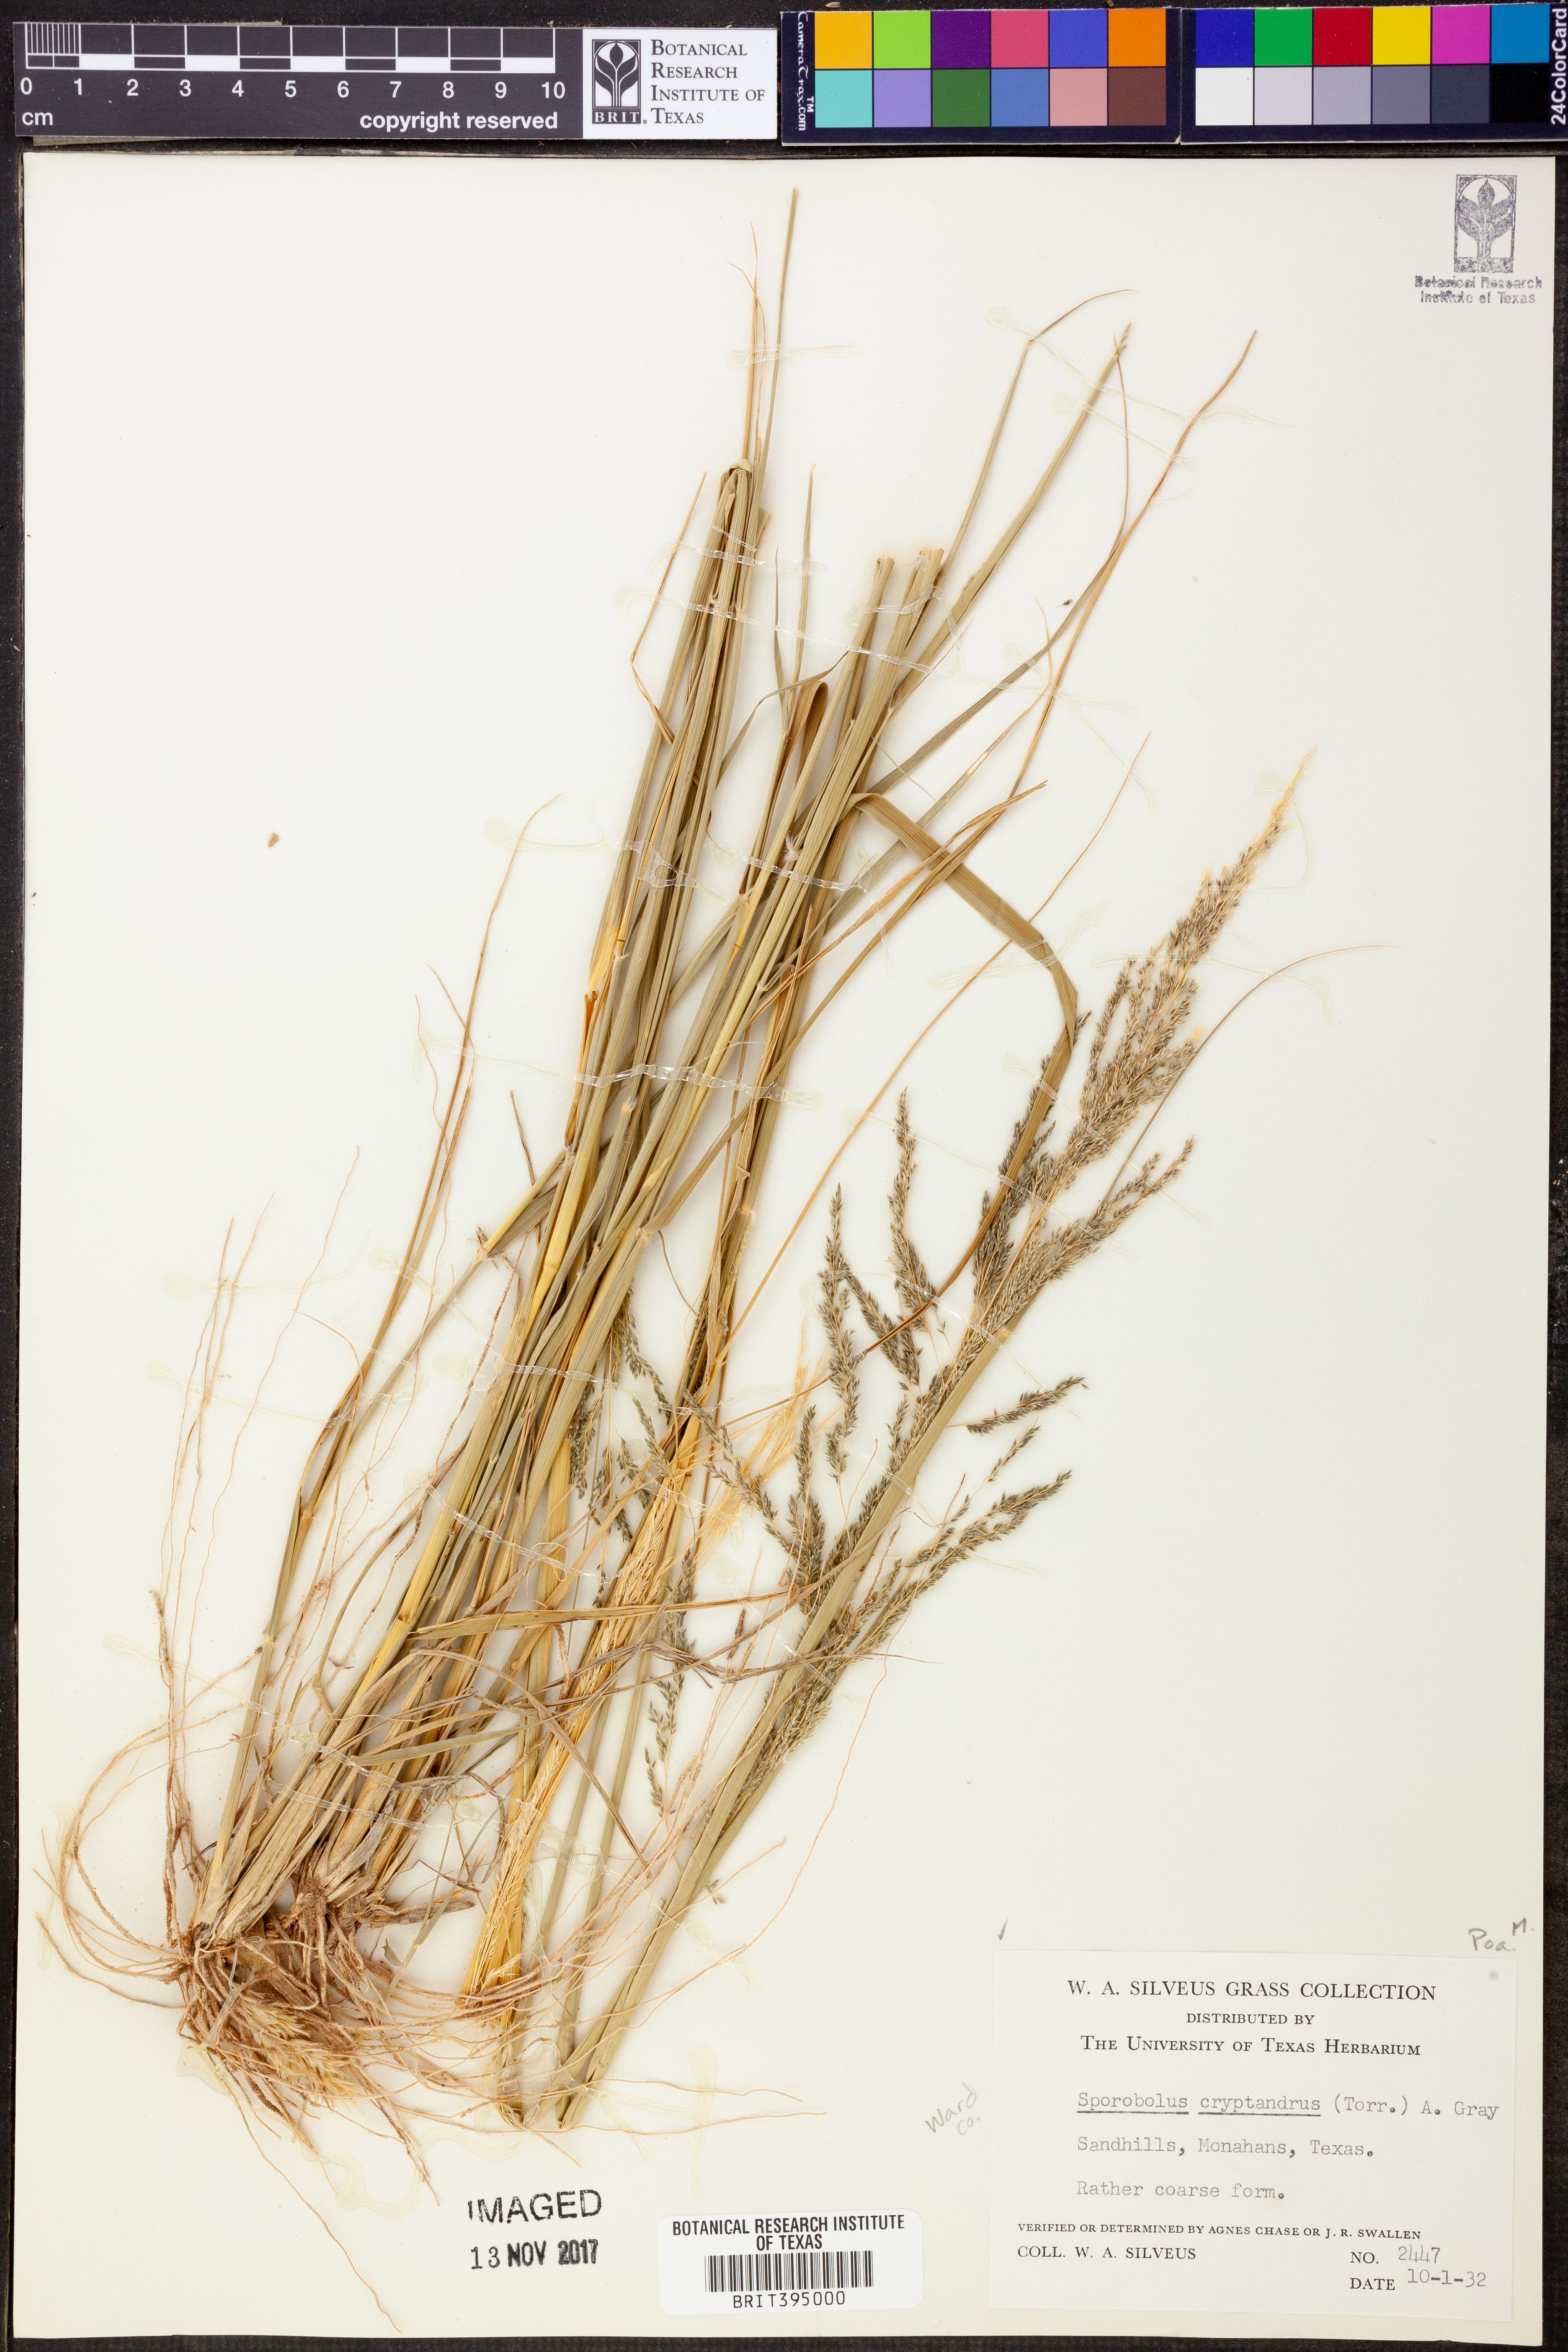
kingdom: Plantae
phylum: Tracheophyta
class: Liliopsida
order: Poales
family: Poaceae
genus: Sporobolus
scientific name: Sporobolus cryptandrus
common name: Sand dropseed
